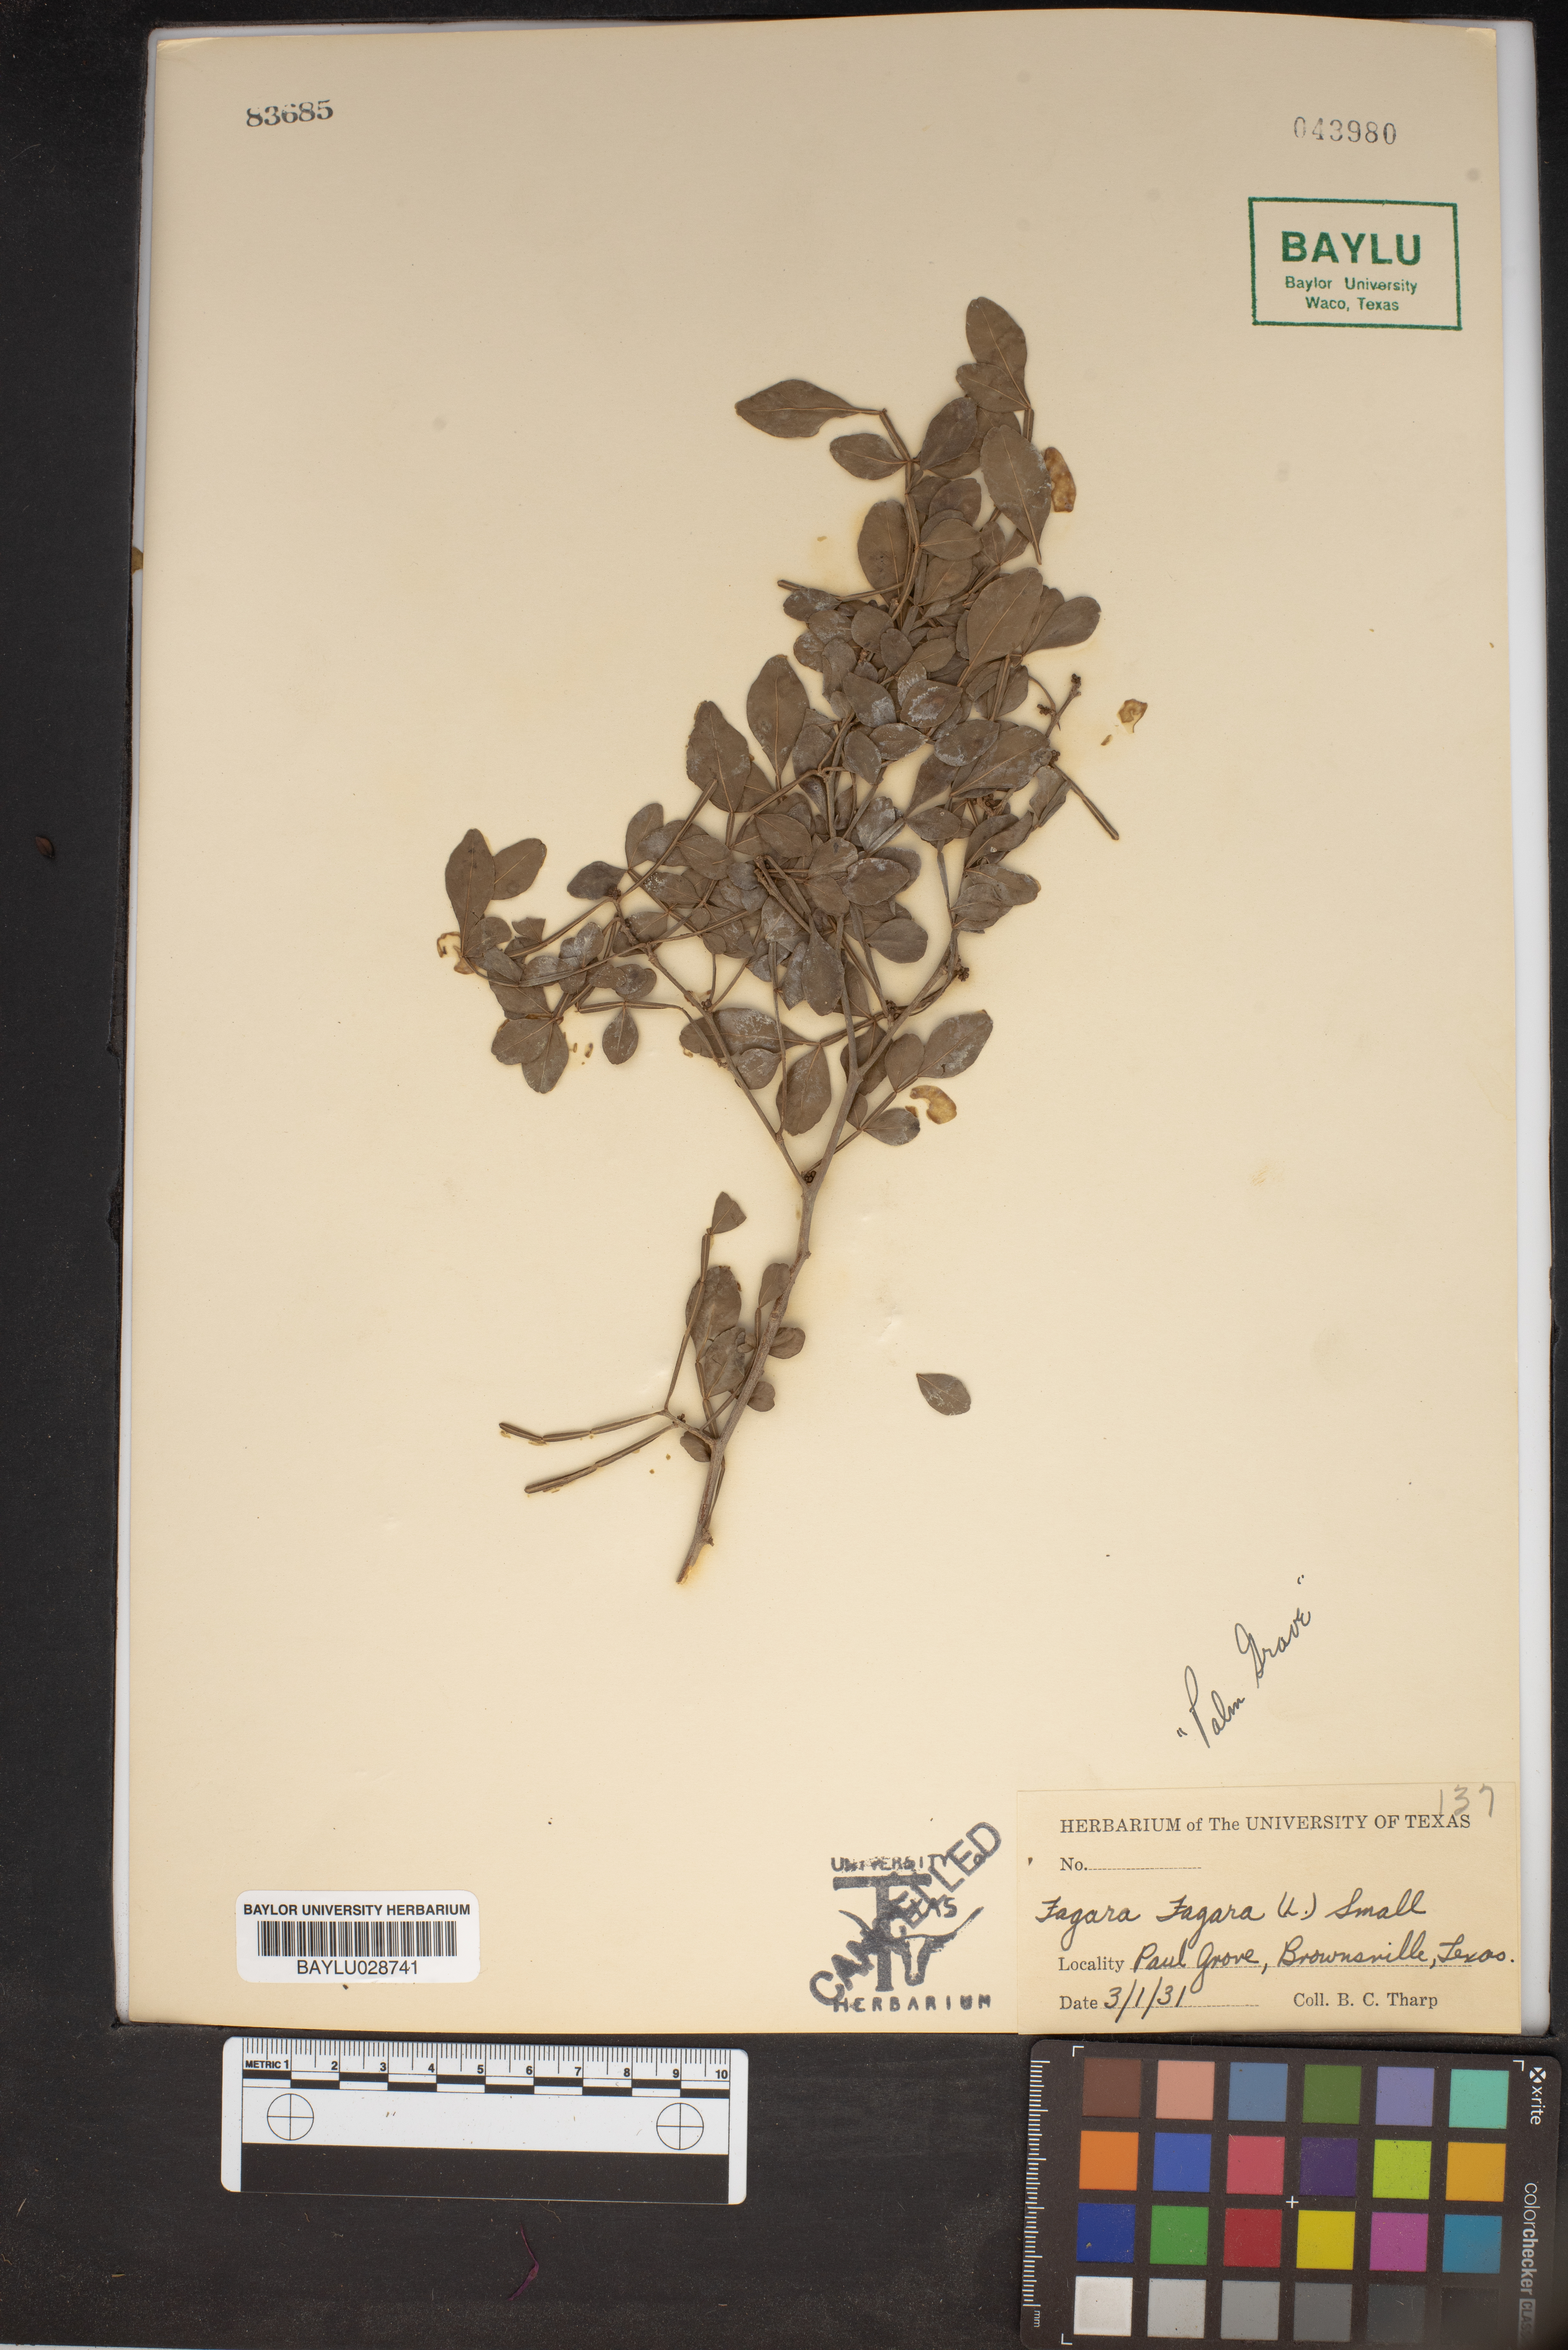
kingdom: Plantae
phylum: Tracheophyta
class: Magnoliopsida
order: Sapindales
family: Rutaceae
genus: Zanthoxylum
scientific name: Zanthoxylum fagara
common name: Lime prickly-ash
